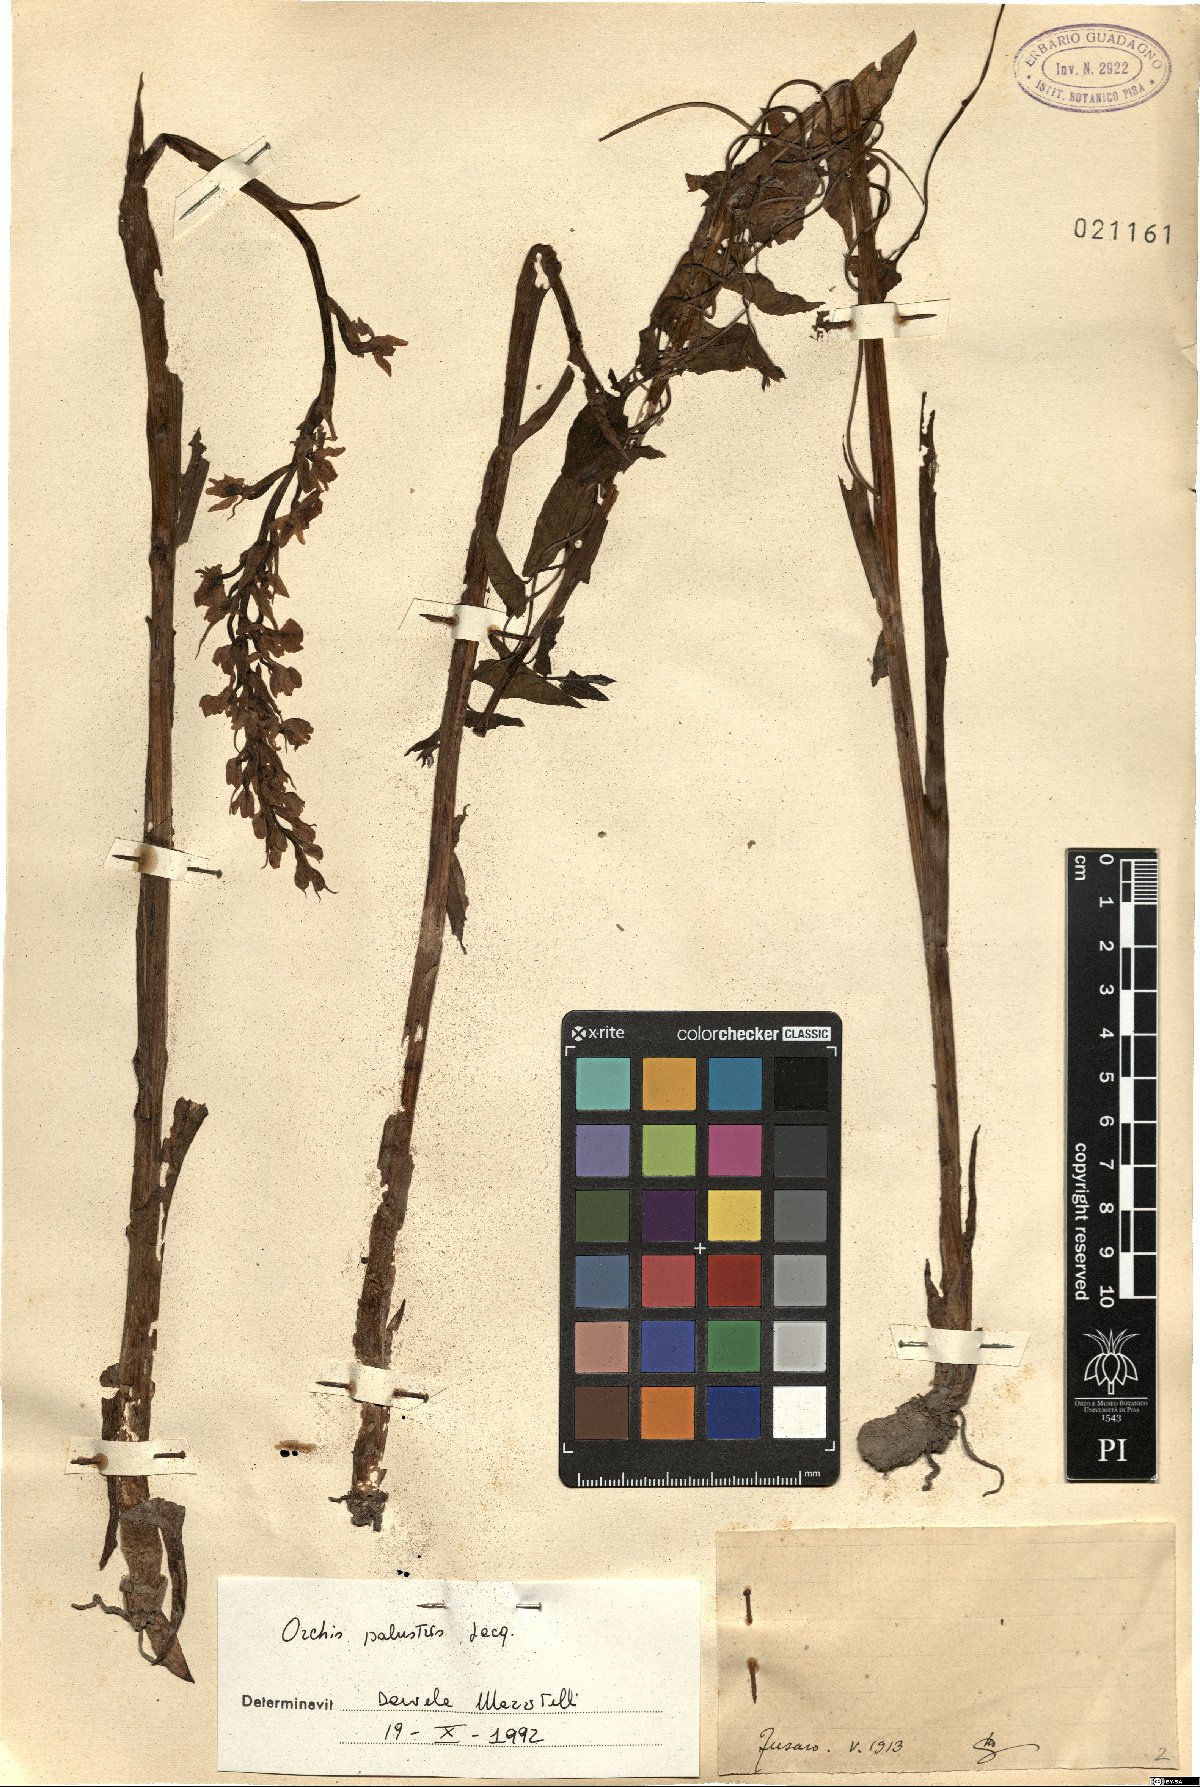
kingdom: Plantae
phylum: Tracheophyta
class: Liliopsida
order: Asparagales
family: Orchidaceae
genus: Anacamptis
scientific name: Anacamptis palustris
